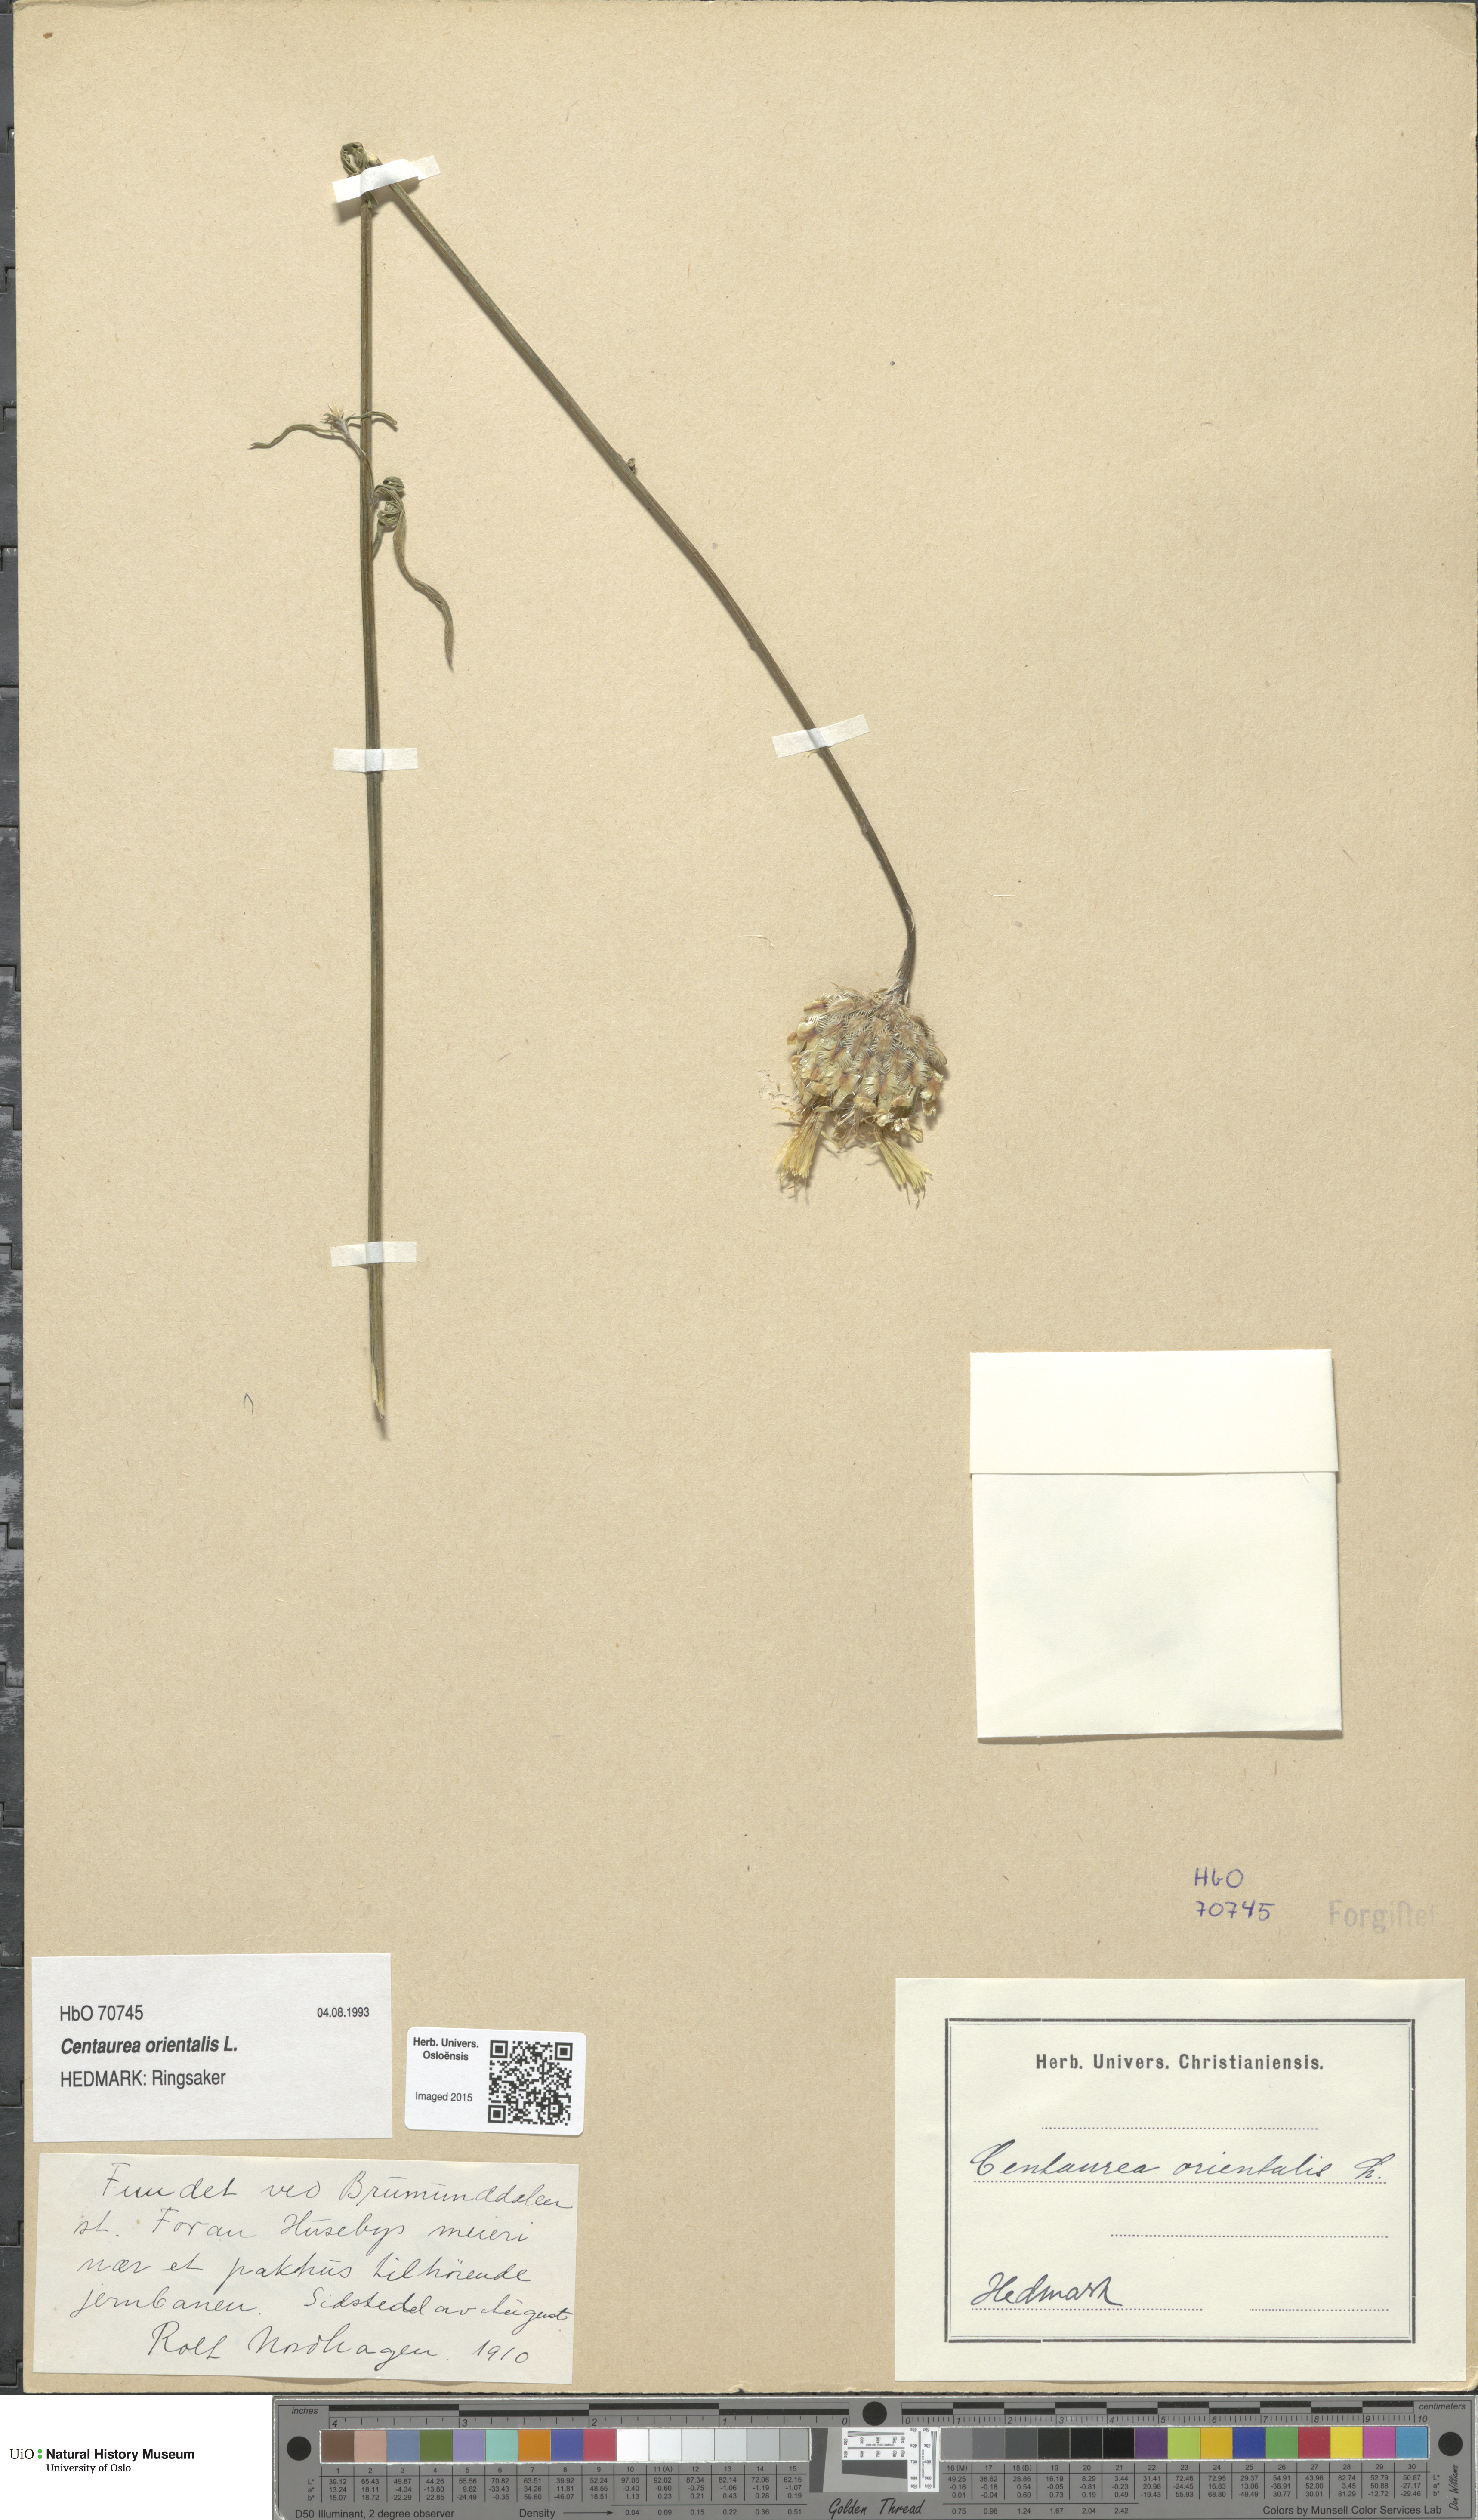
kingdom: Plantae
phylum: Tracheophyta
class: Magnoliopsida
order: Asterales
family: Asteraceae
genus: Centaurea
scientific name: Centaurea orientalis
